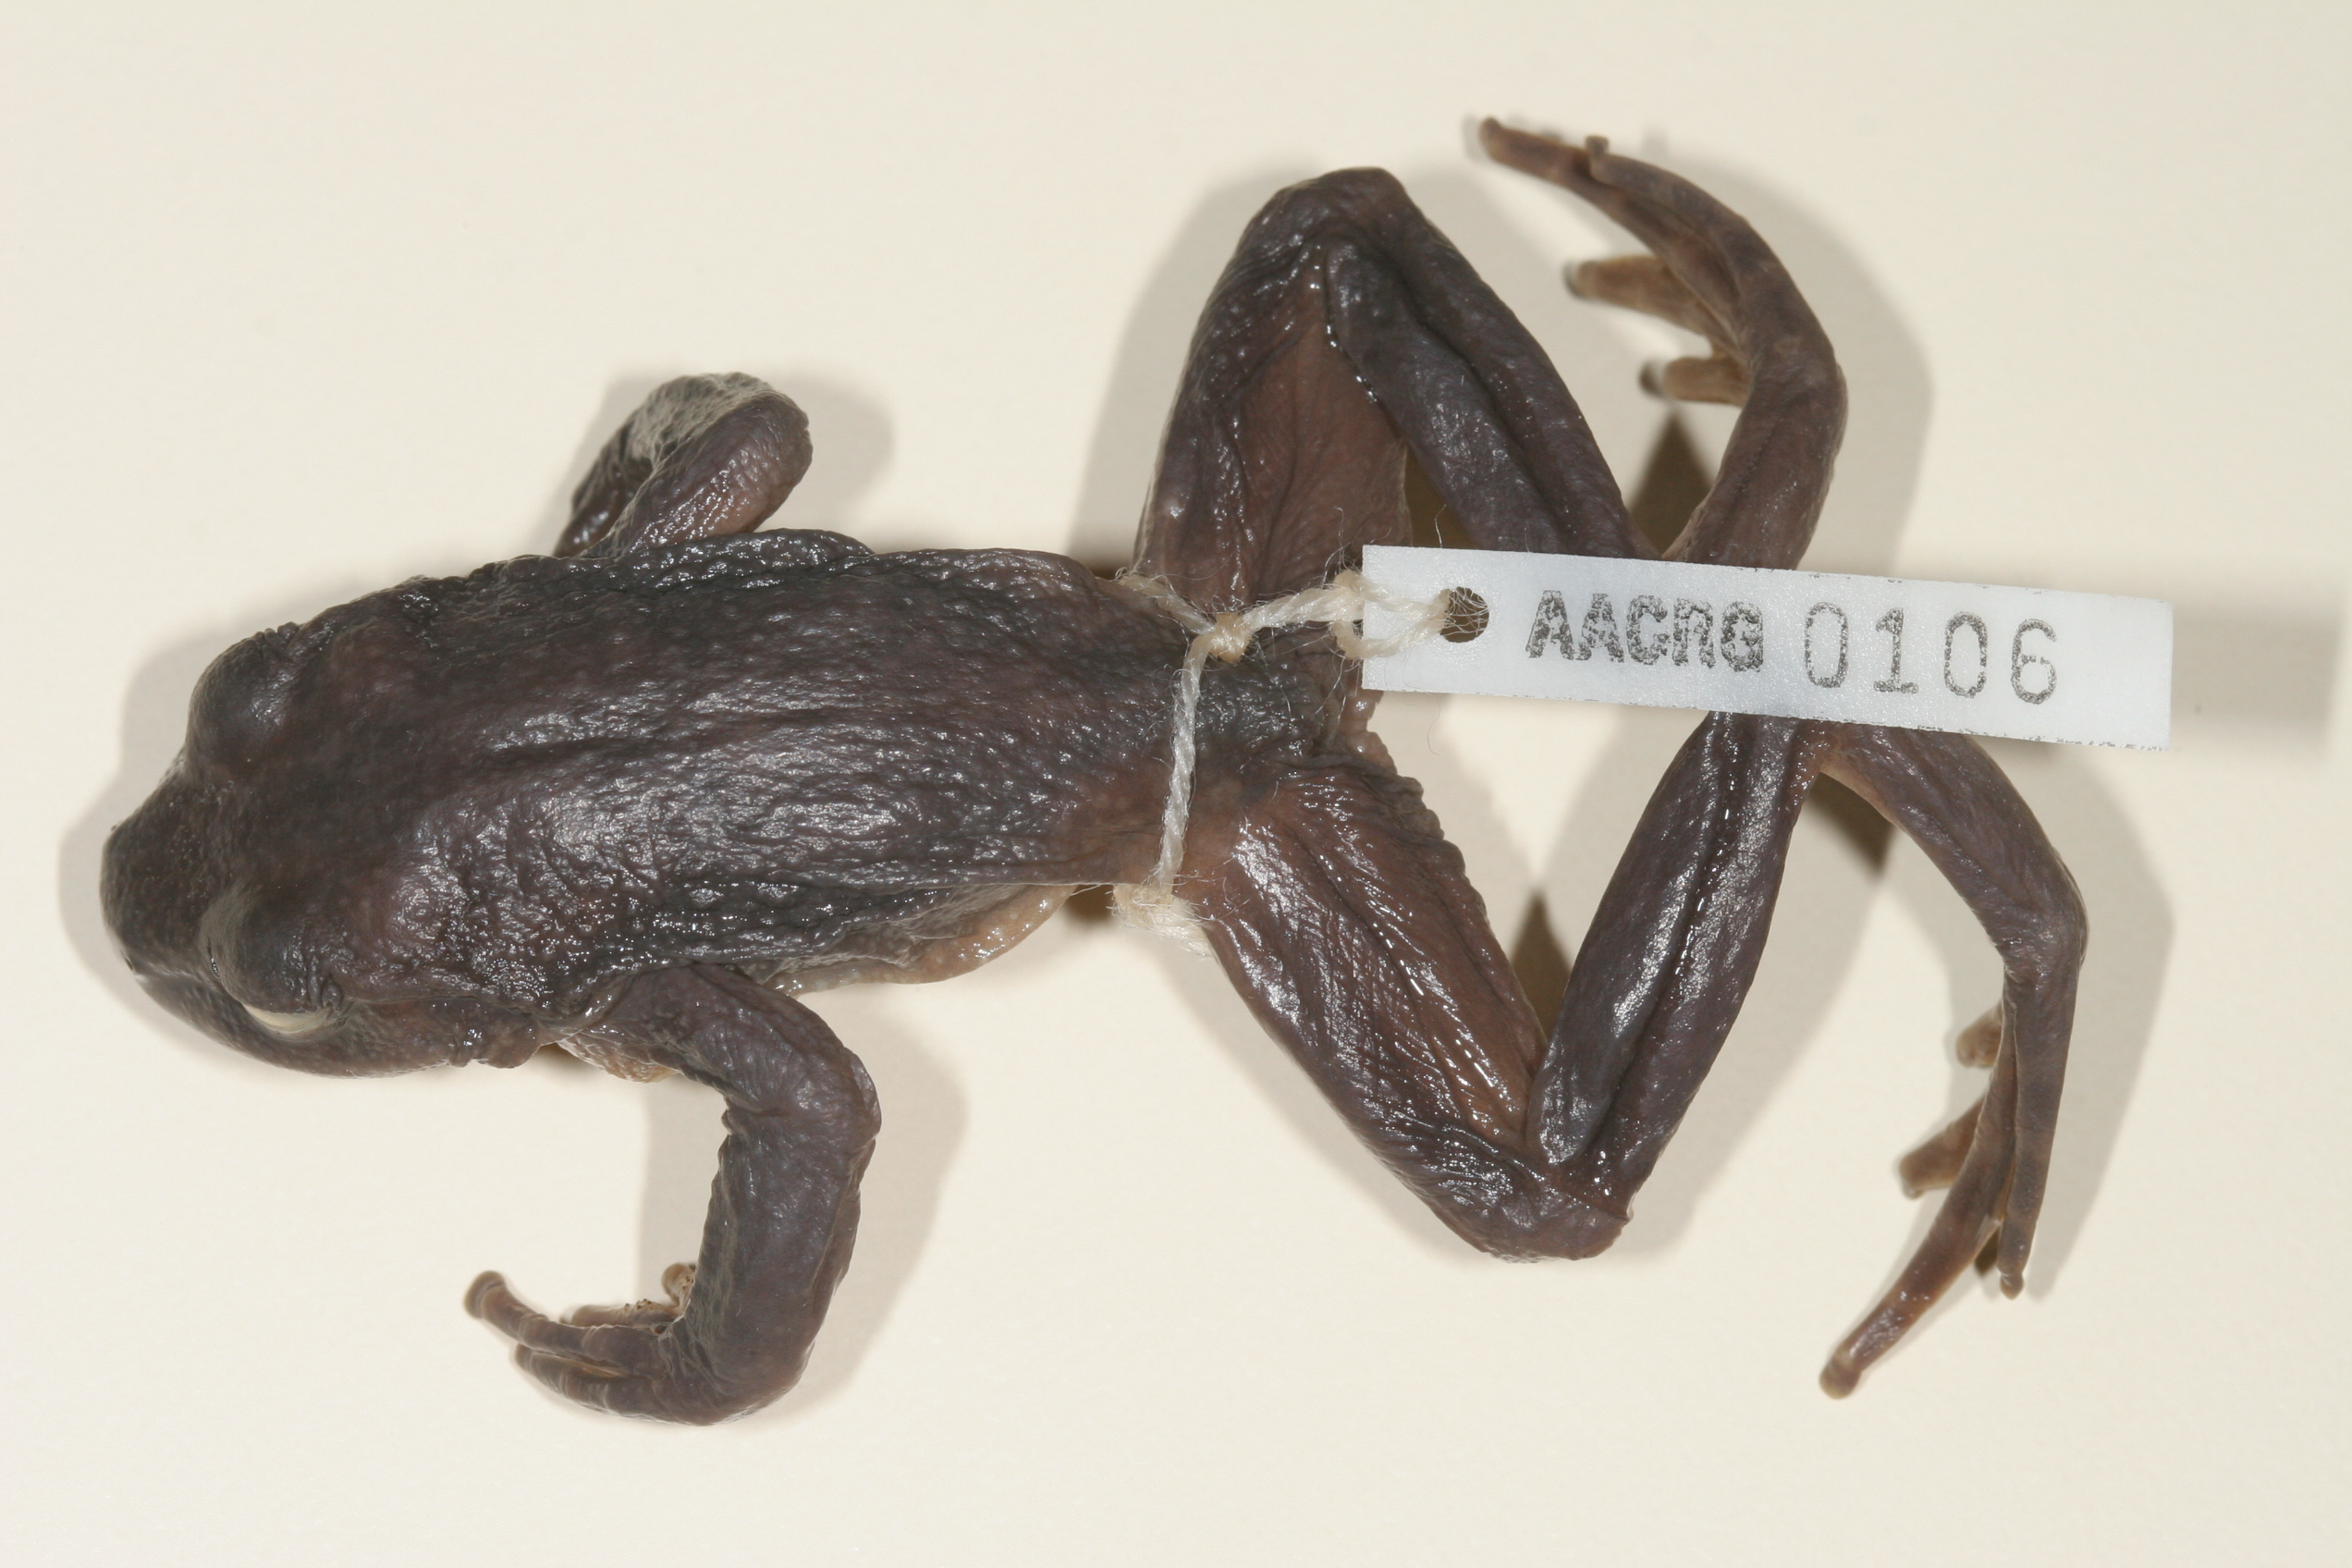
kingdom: Animalia
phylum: Chordata
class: Amphibia
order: Anura
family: Heleophrynidae
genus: Hadromophryne
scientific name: Hadromophryne natalensis
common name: Natal ghost frog
